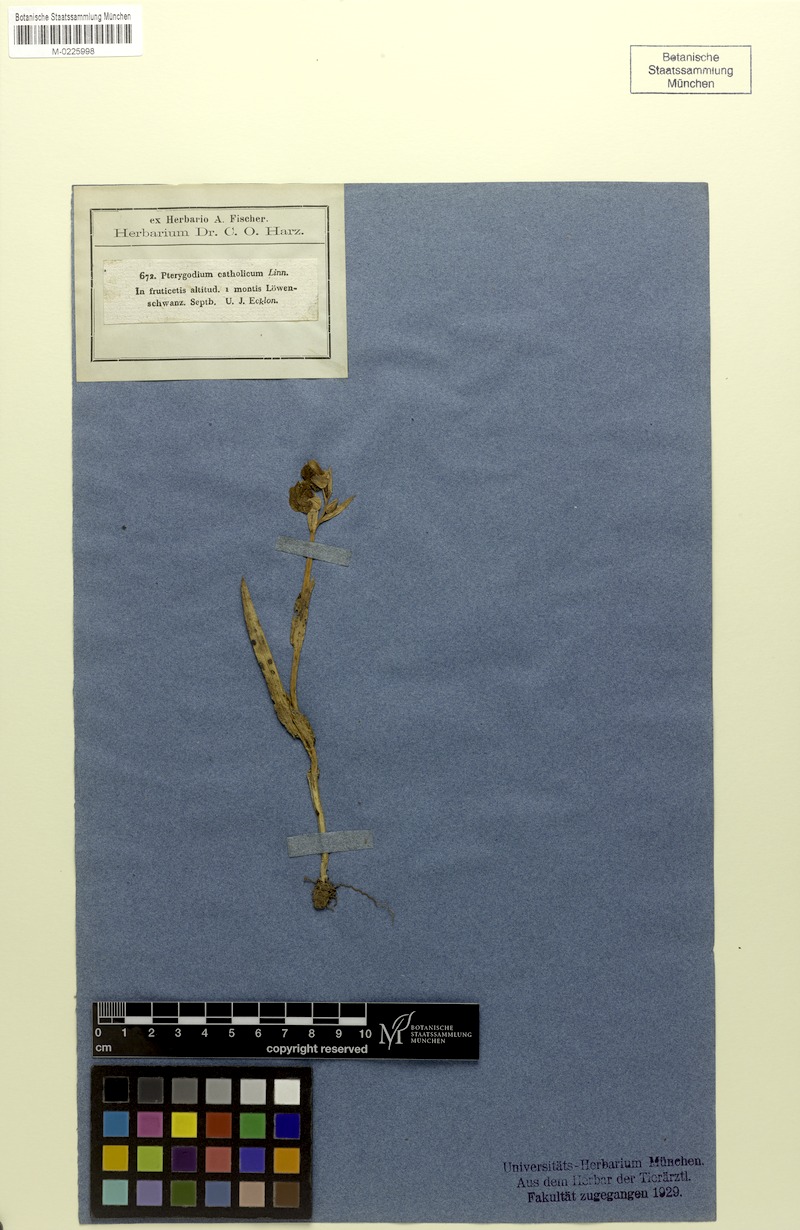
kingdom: Plantae
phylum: Tracheophyta
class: Liliopsida
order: Asparagales
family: Orchidaceae
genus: Pterygodium
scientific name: Pterygodium catholicum
